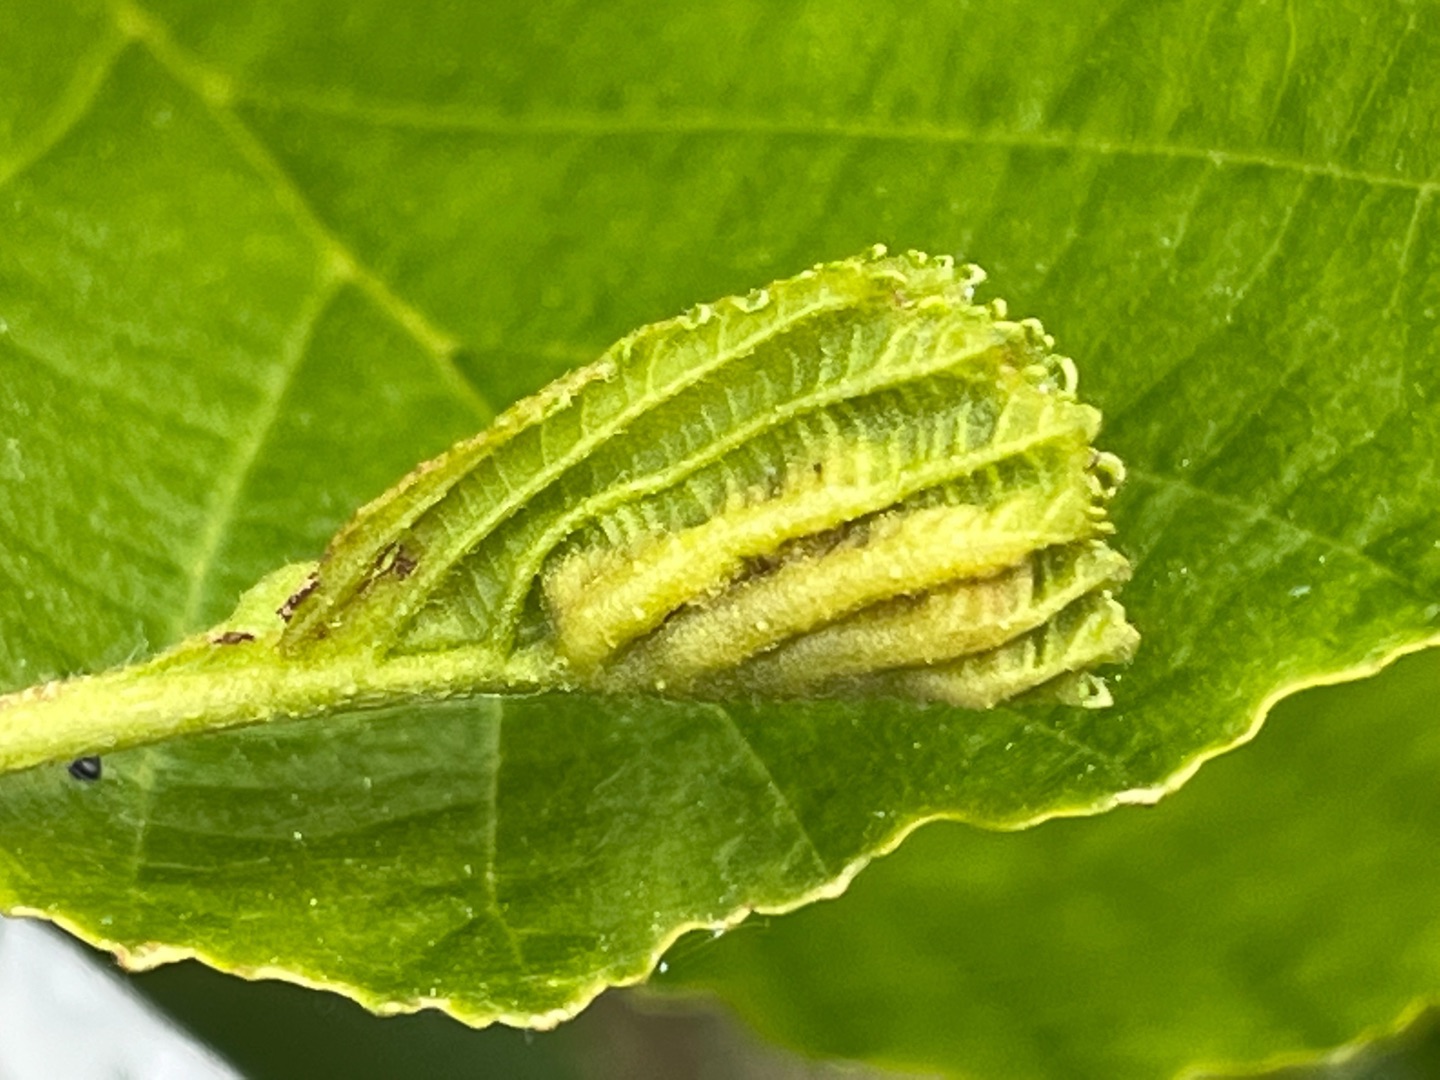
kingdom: Animalia
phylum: Arthropoda
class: Insecta
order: Diptera
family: Cecidomyiidae
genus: Dasineura
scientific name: Dasineura tortilis
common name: Ellebladgalmyg
